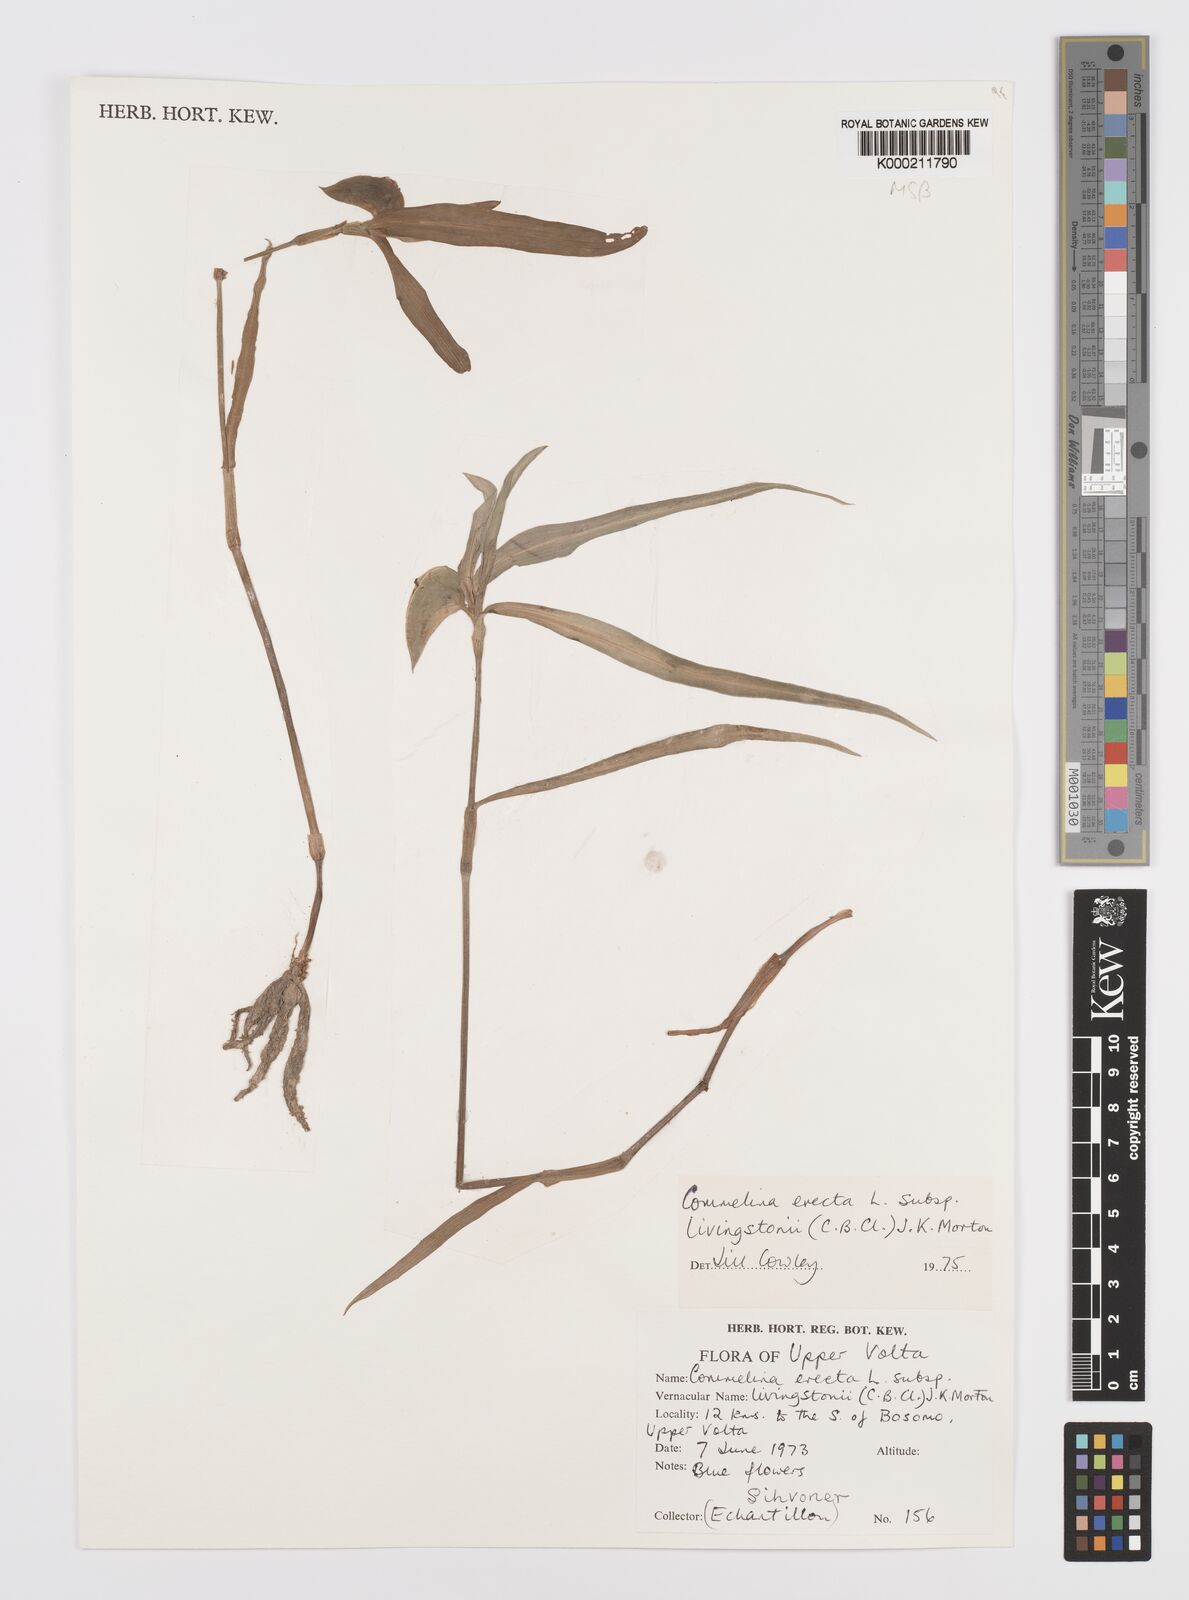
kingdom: Plantae
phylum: Tracheophyta
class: Liliopsida
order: Commelinales
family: Commelinaceae
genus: Commelina
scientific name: Commelina erecta
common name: Blousel blommetjie
